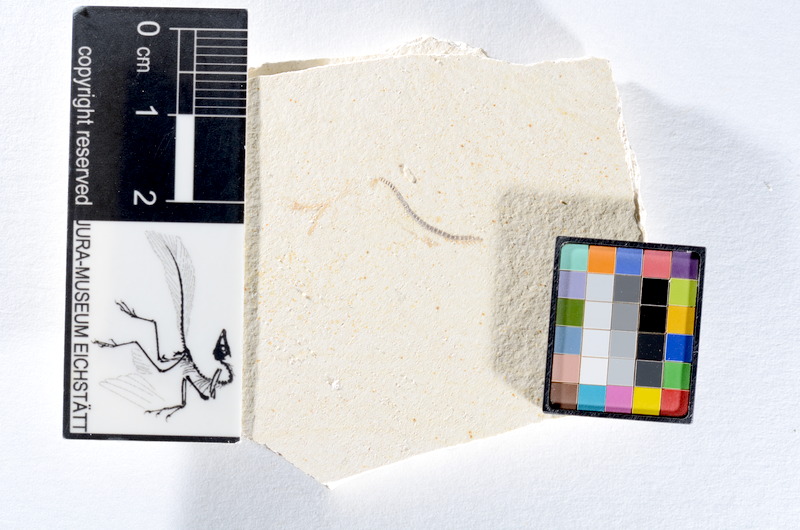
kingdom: Animalia
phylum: Chordata
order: Salmoniformes
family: Orthogonikleithridae
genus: Orthogonikleithrus
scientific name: Orthogonikleithrus hoelli
